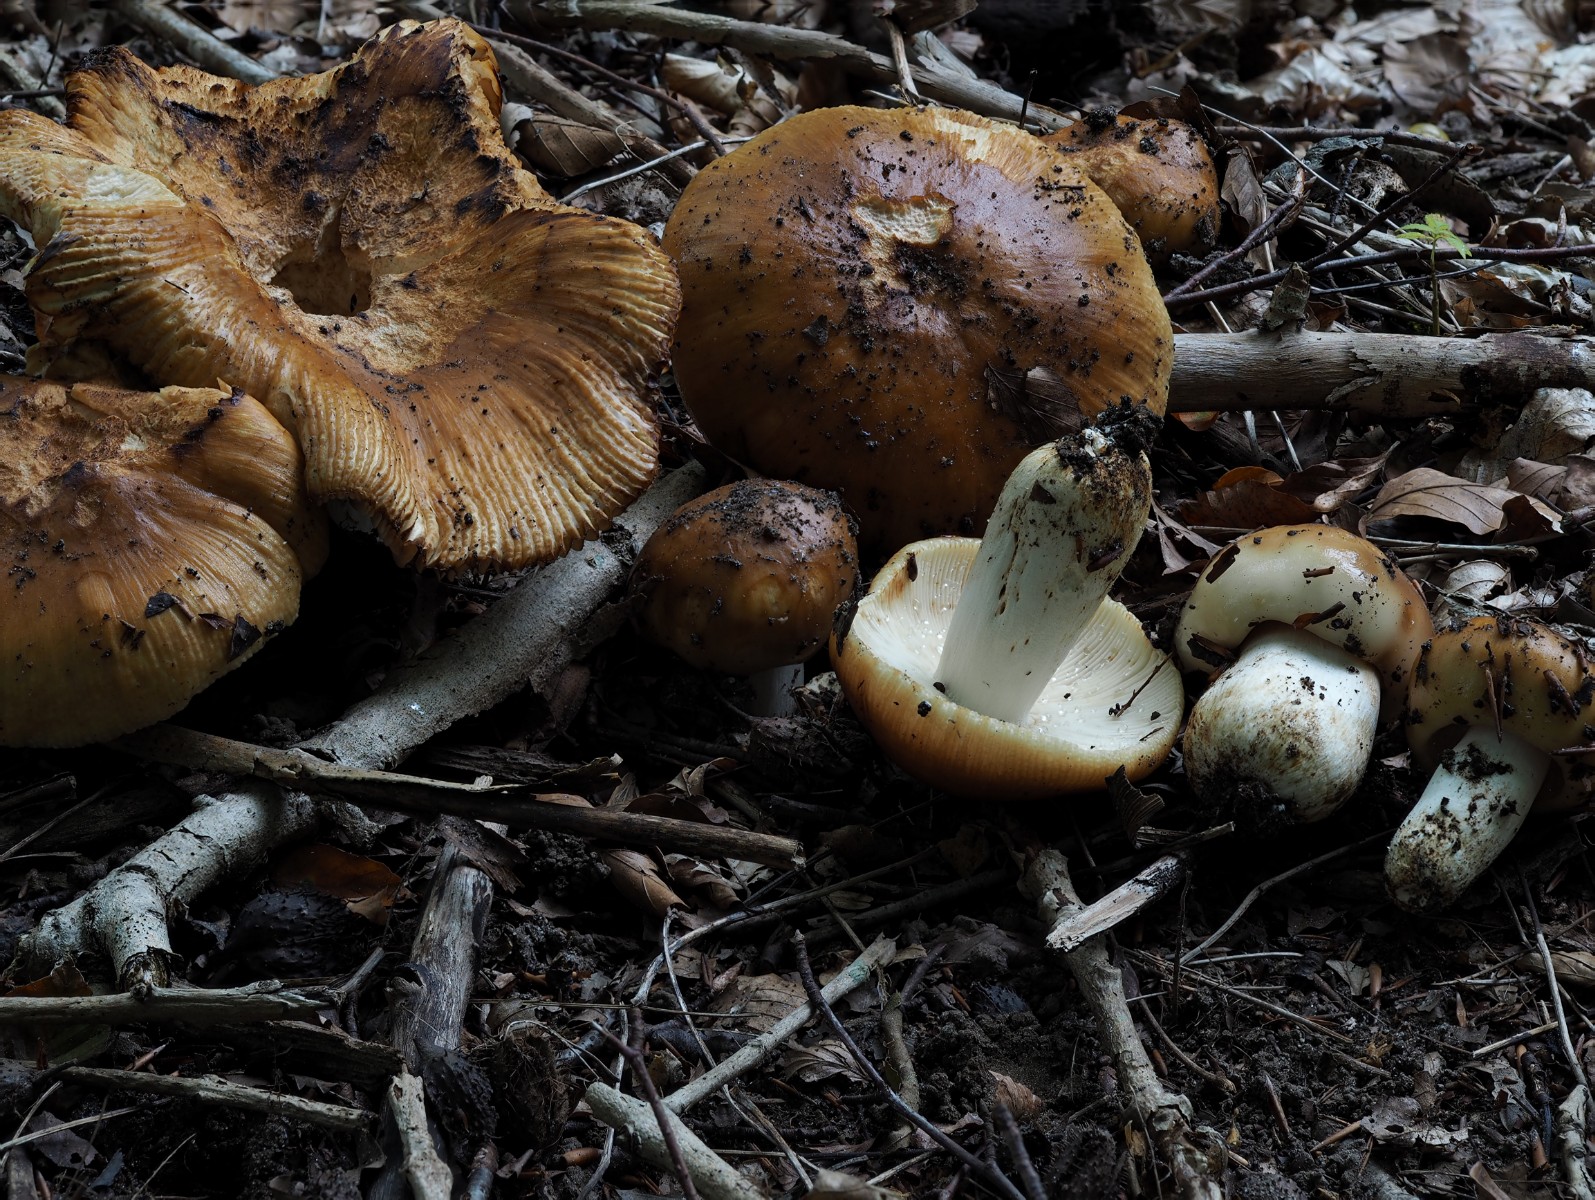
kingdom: Fungi
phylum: Basidiomycota
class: Agaricomycetes
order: Russulales
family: Russulaceae
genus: Russula
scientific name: Russula foetens
